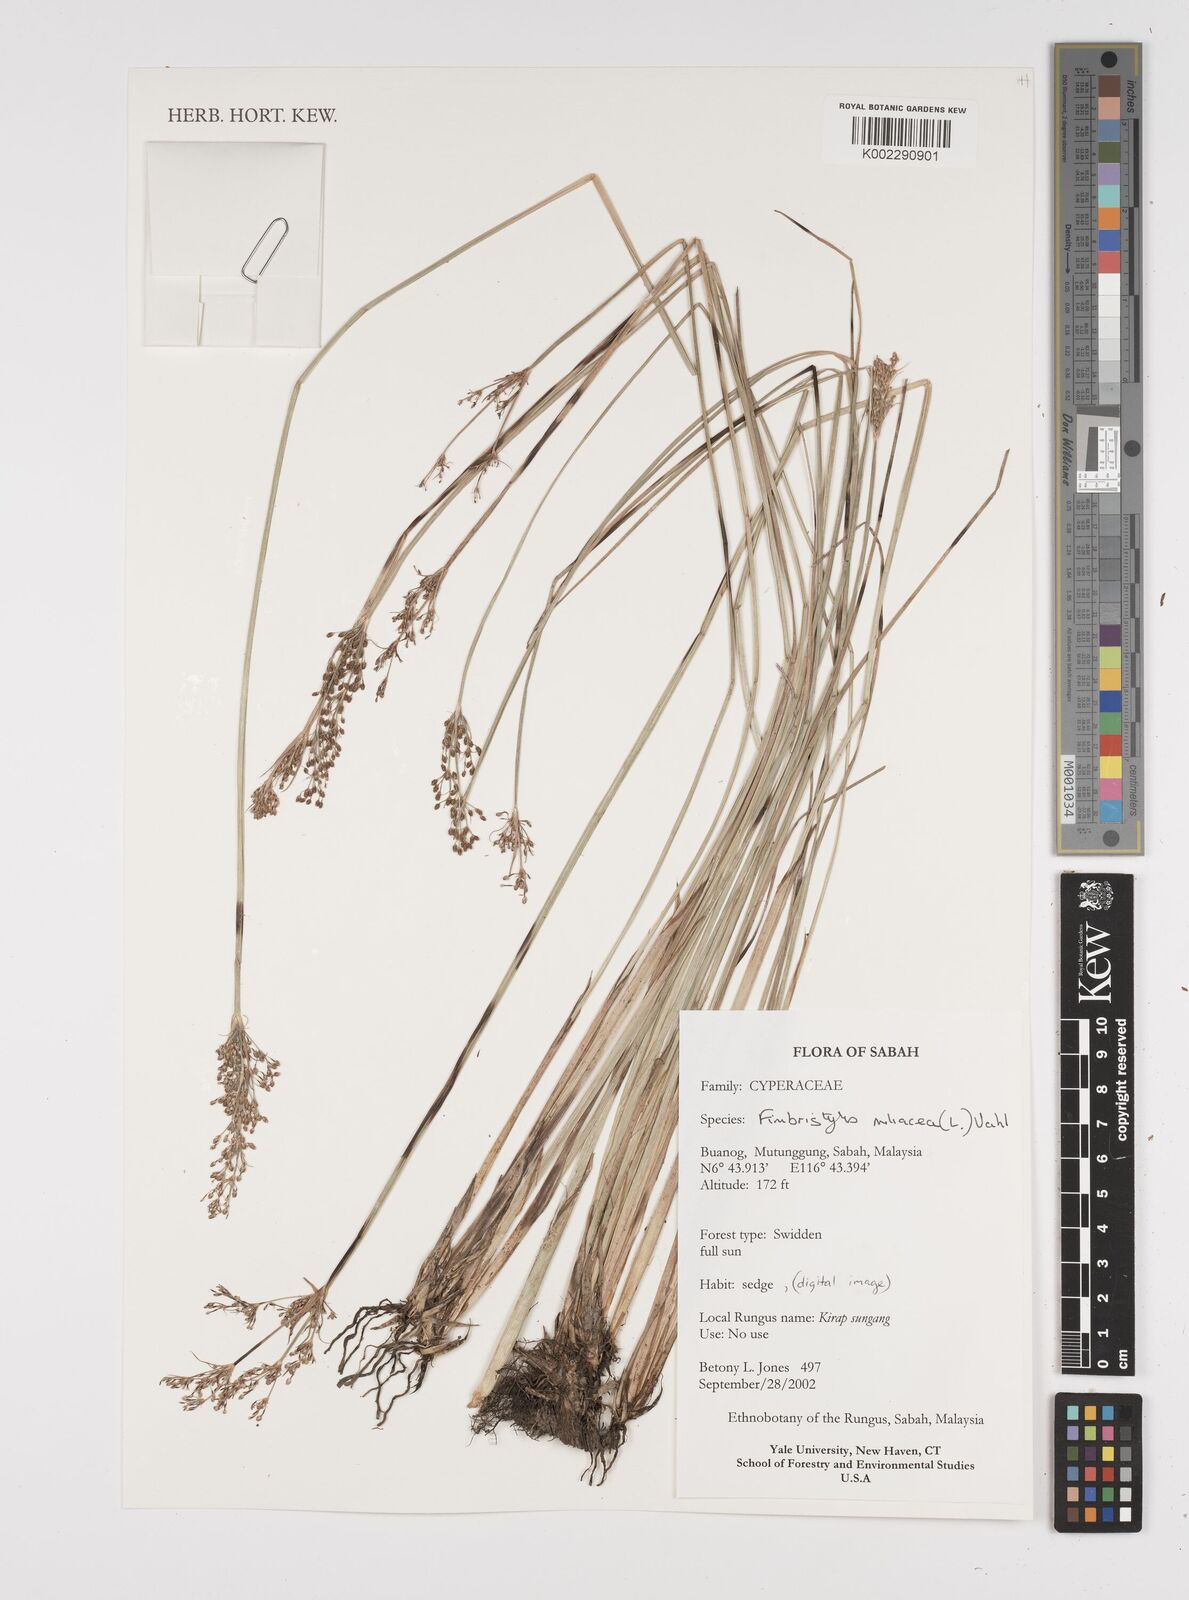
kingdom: Plantae
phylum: Tracheophyta
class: Liliopsida
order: Poales
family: Cyperaceae
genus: Fimbristylis
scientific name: Fimbristylis quinquangularis
